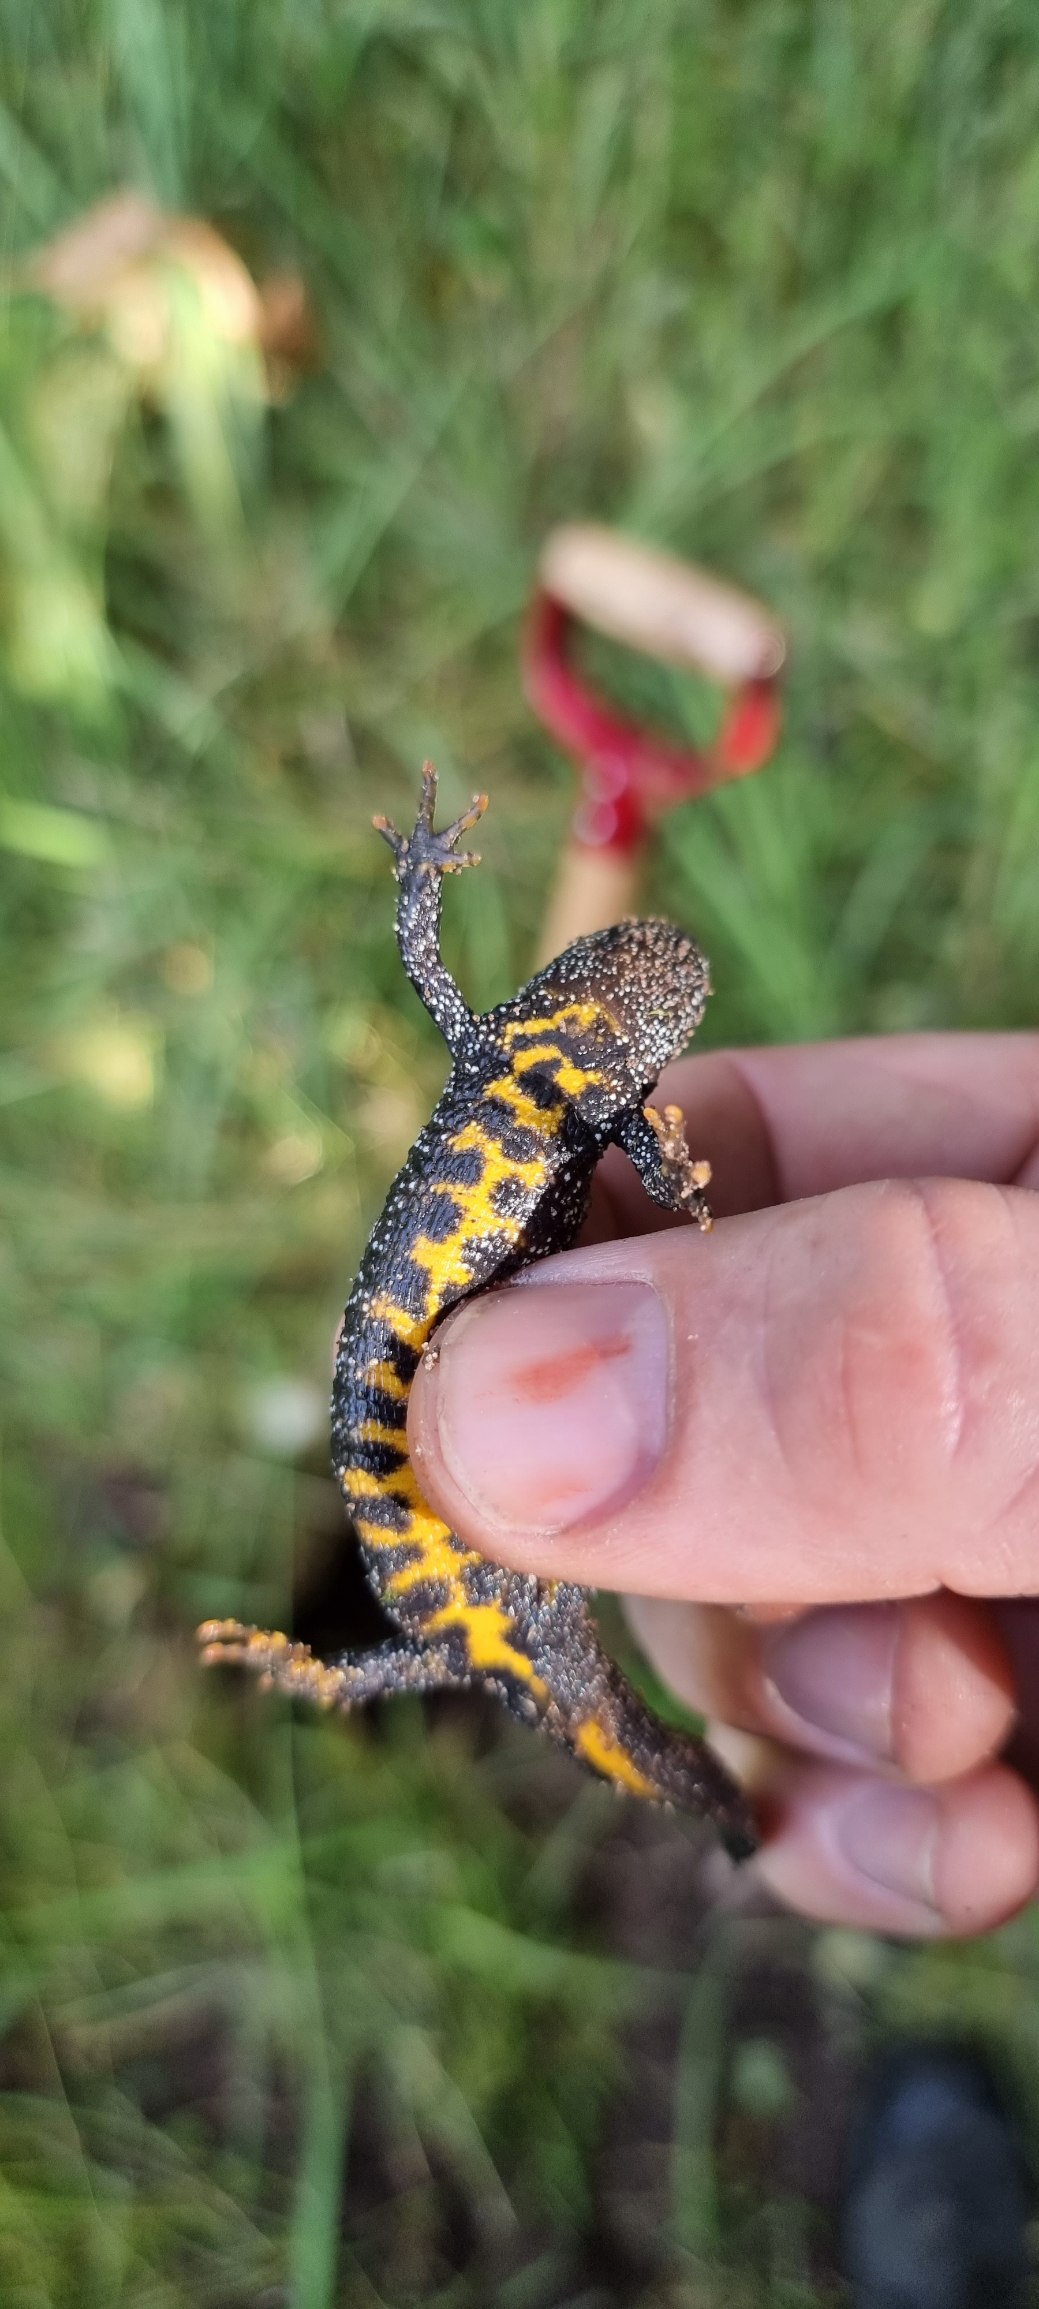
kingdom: Animalia
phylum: Chordata
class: Amphibia
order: Caudata
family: Salamandridae
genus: Triturus
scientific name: Triturus cristatus
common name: Stor vandsalamander
